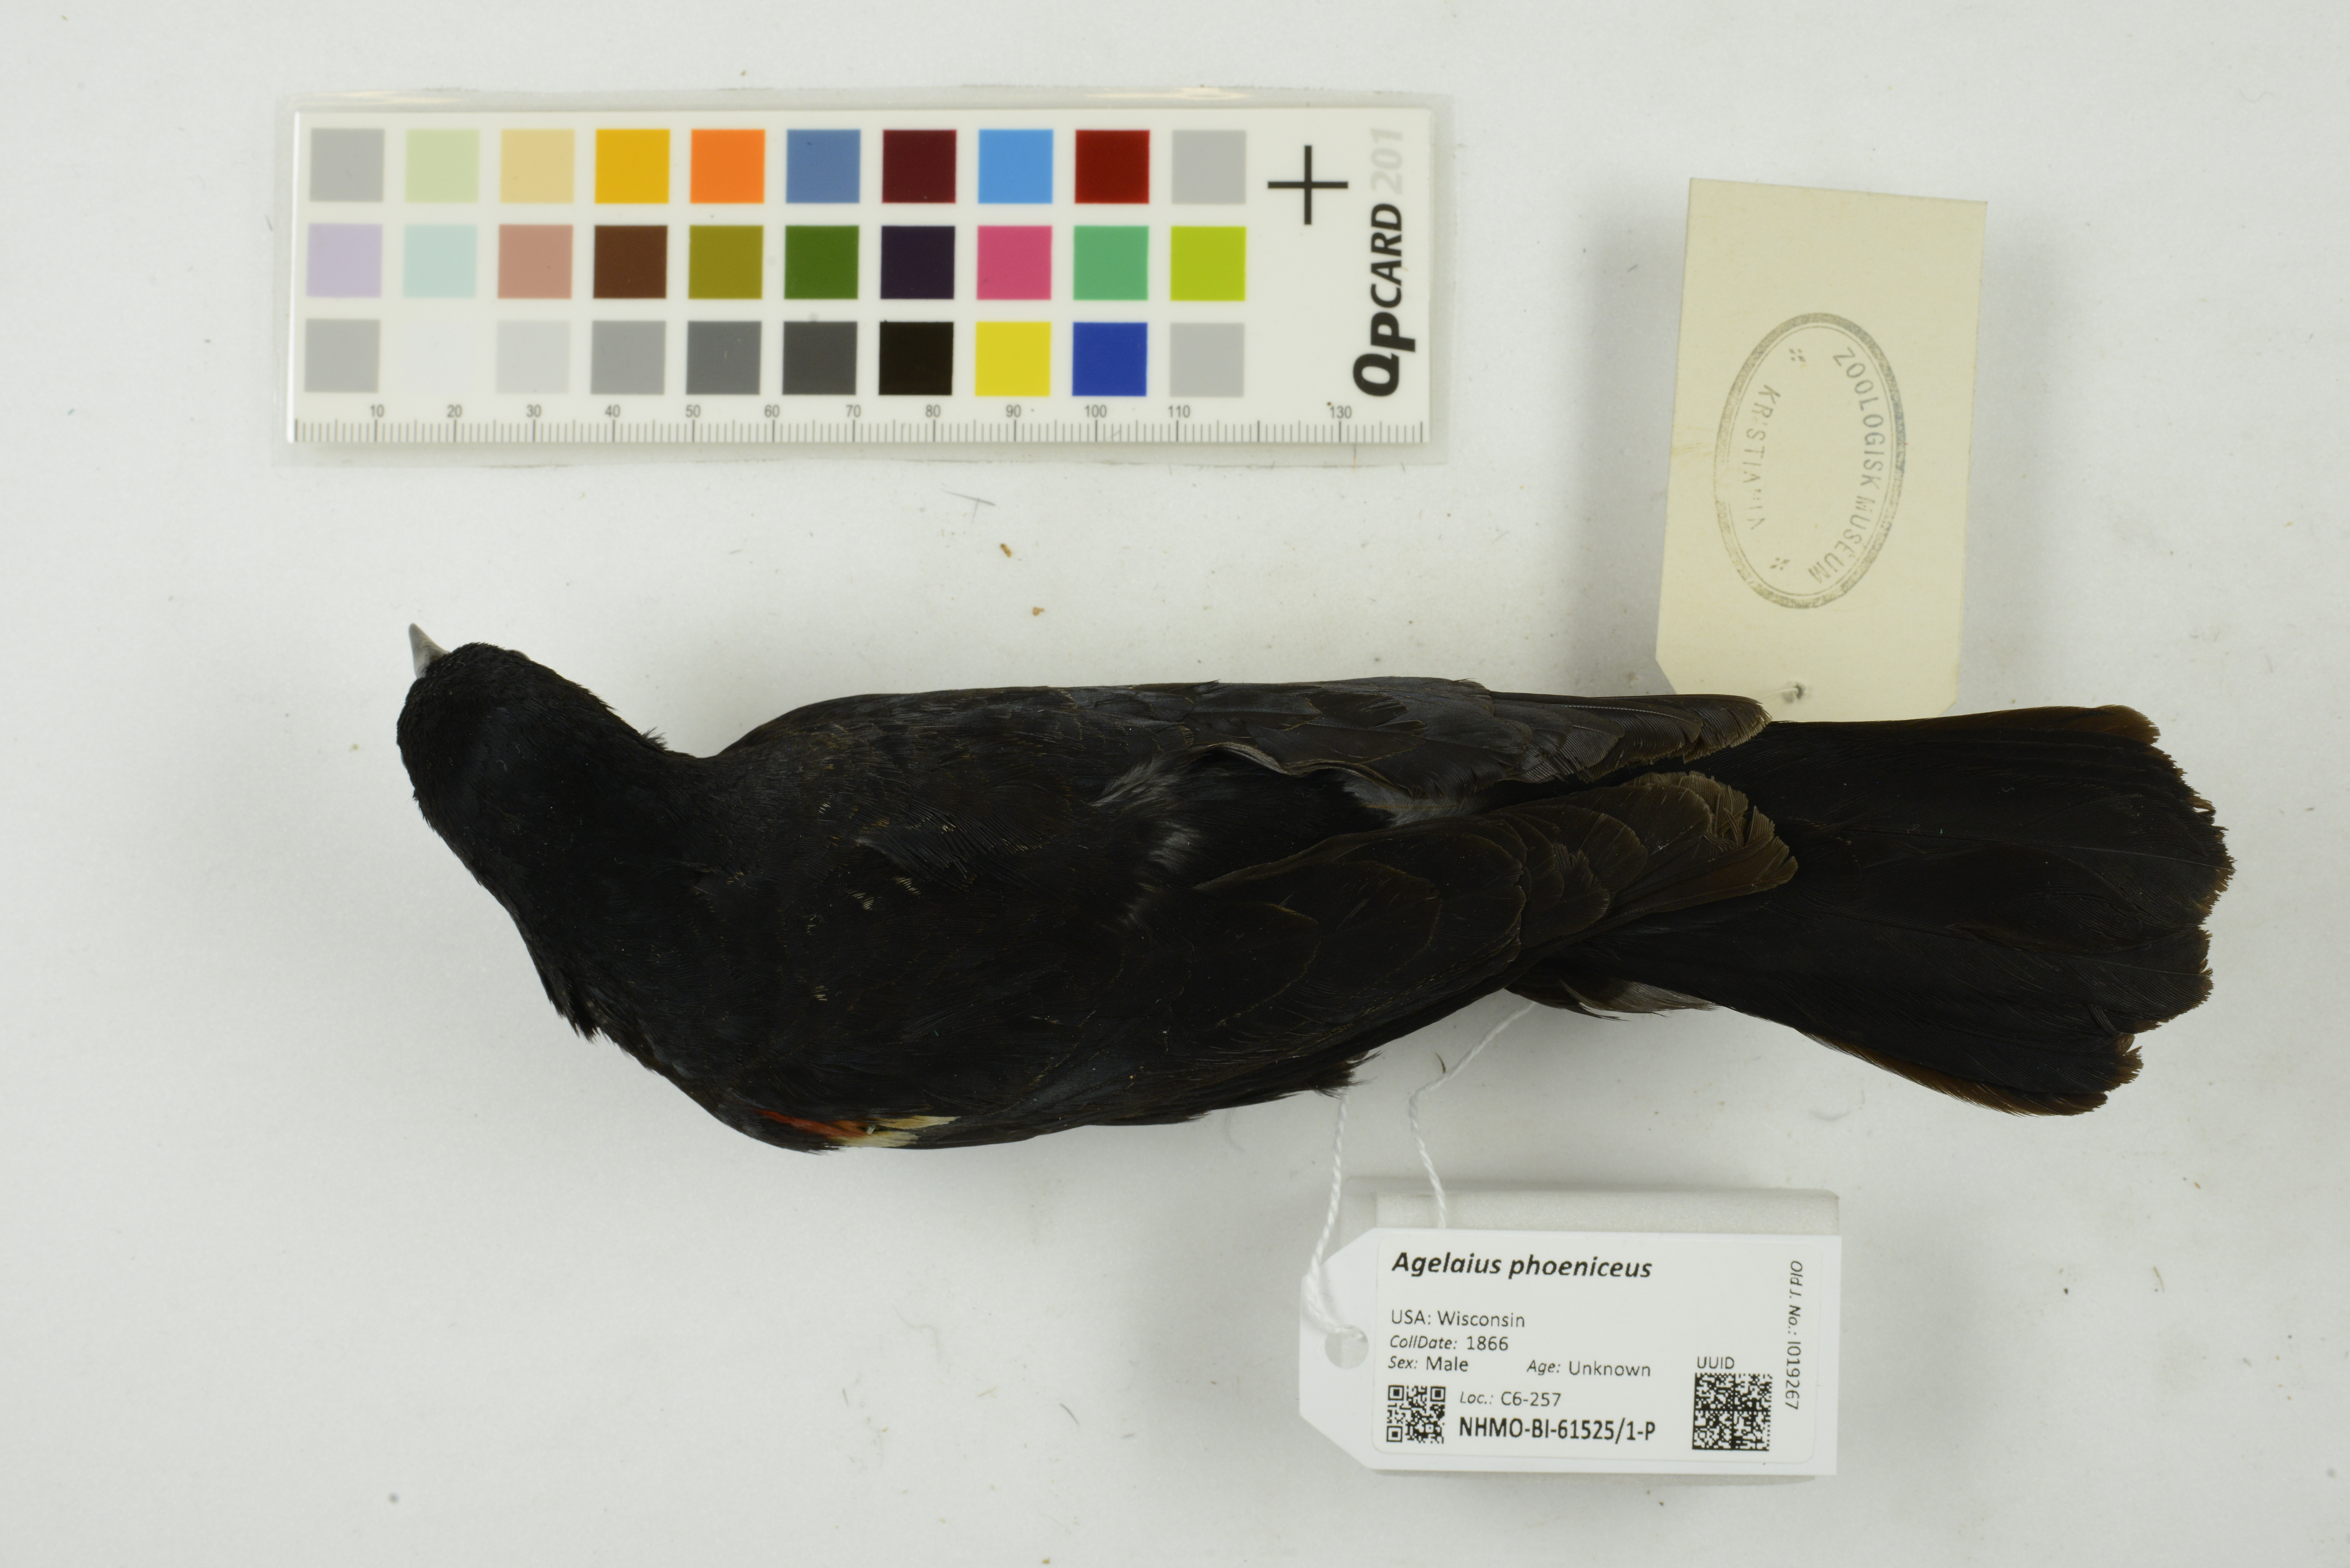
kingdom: Animalia
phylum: Chordata
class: Aves
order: Passeriformes
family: Icteridae
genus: Agelaius
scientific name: Agelaius phoeniceus
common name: Red-winged blackbird
